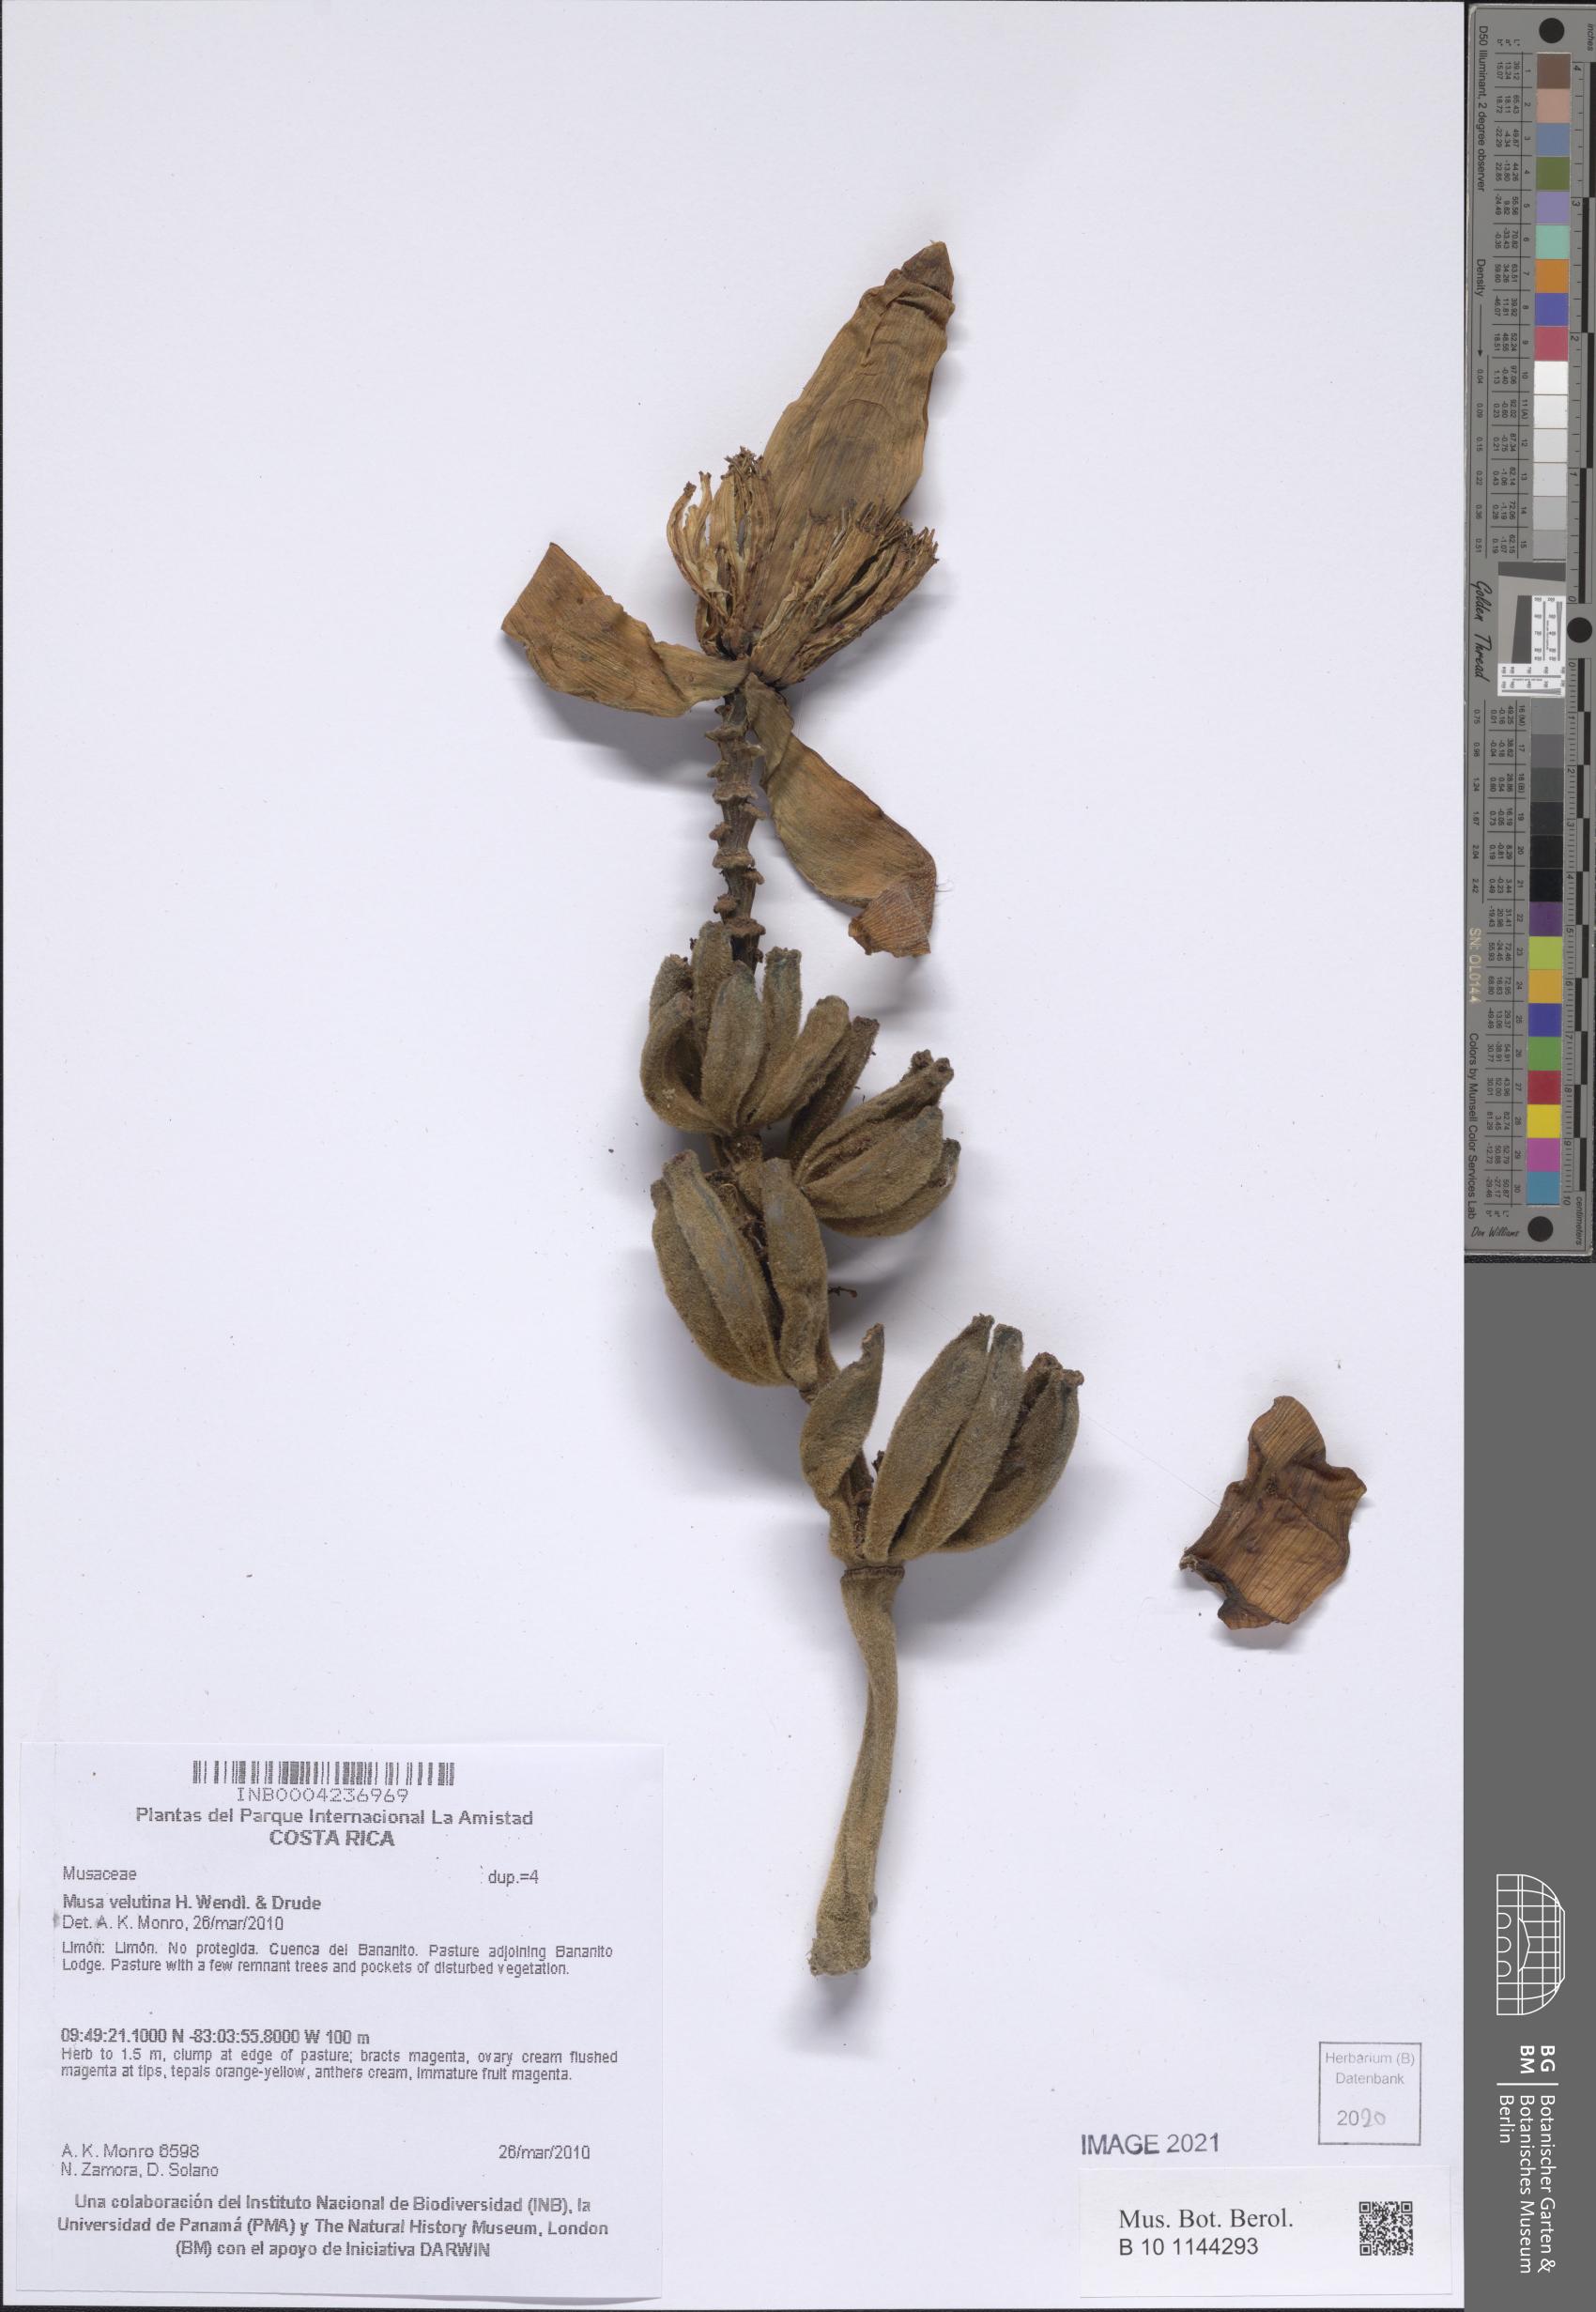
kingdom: Plantae
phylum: Tracheophyta
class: Liliopsida
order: Zingiberales
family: Musaceae
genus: Musa
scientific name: Musa velutina
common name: Pink velvet banana
